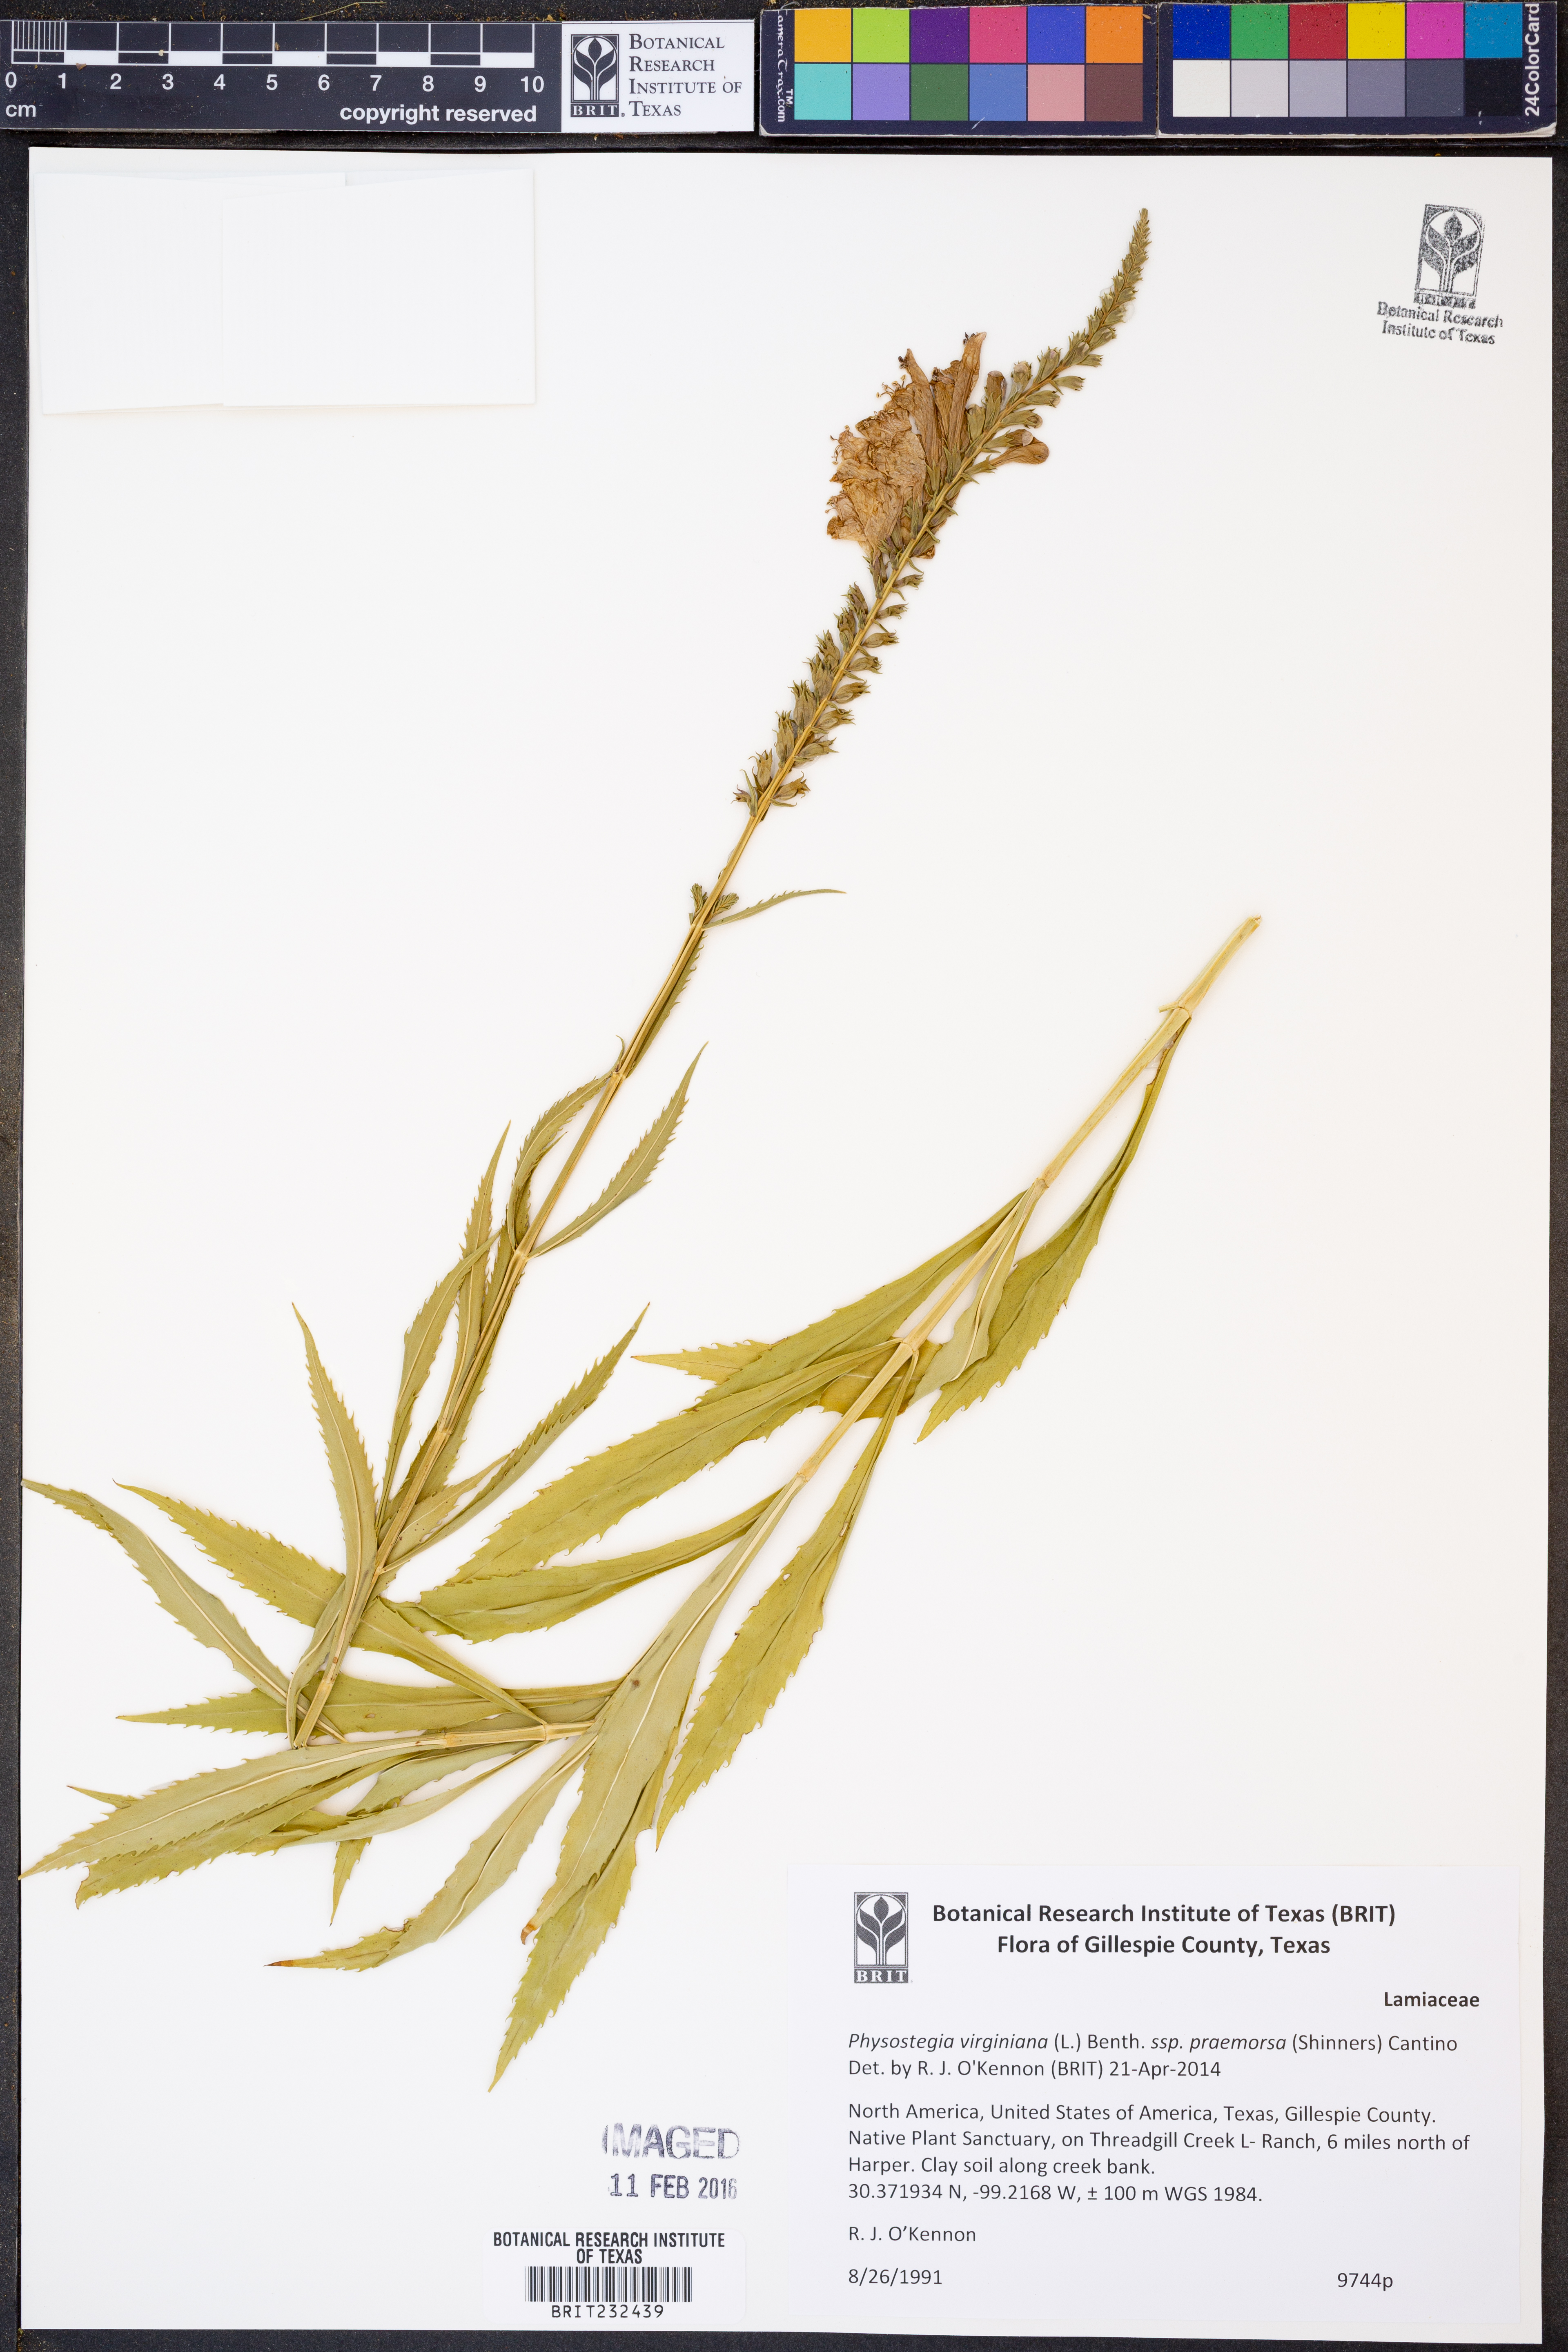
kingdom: Plantae
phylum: Tracheophyta
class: Magnoliopsida
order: Lamiales
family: Lamiaceae
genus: Physostegia
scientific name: Physostegia virginiana
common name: Obedient-plant
